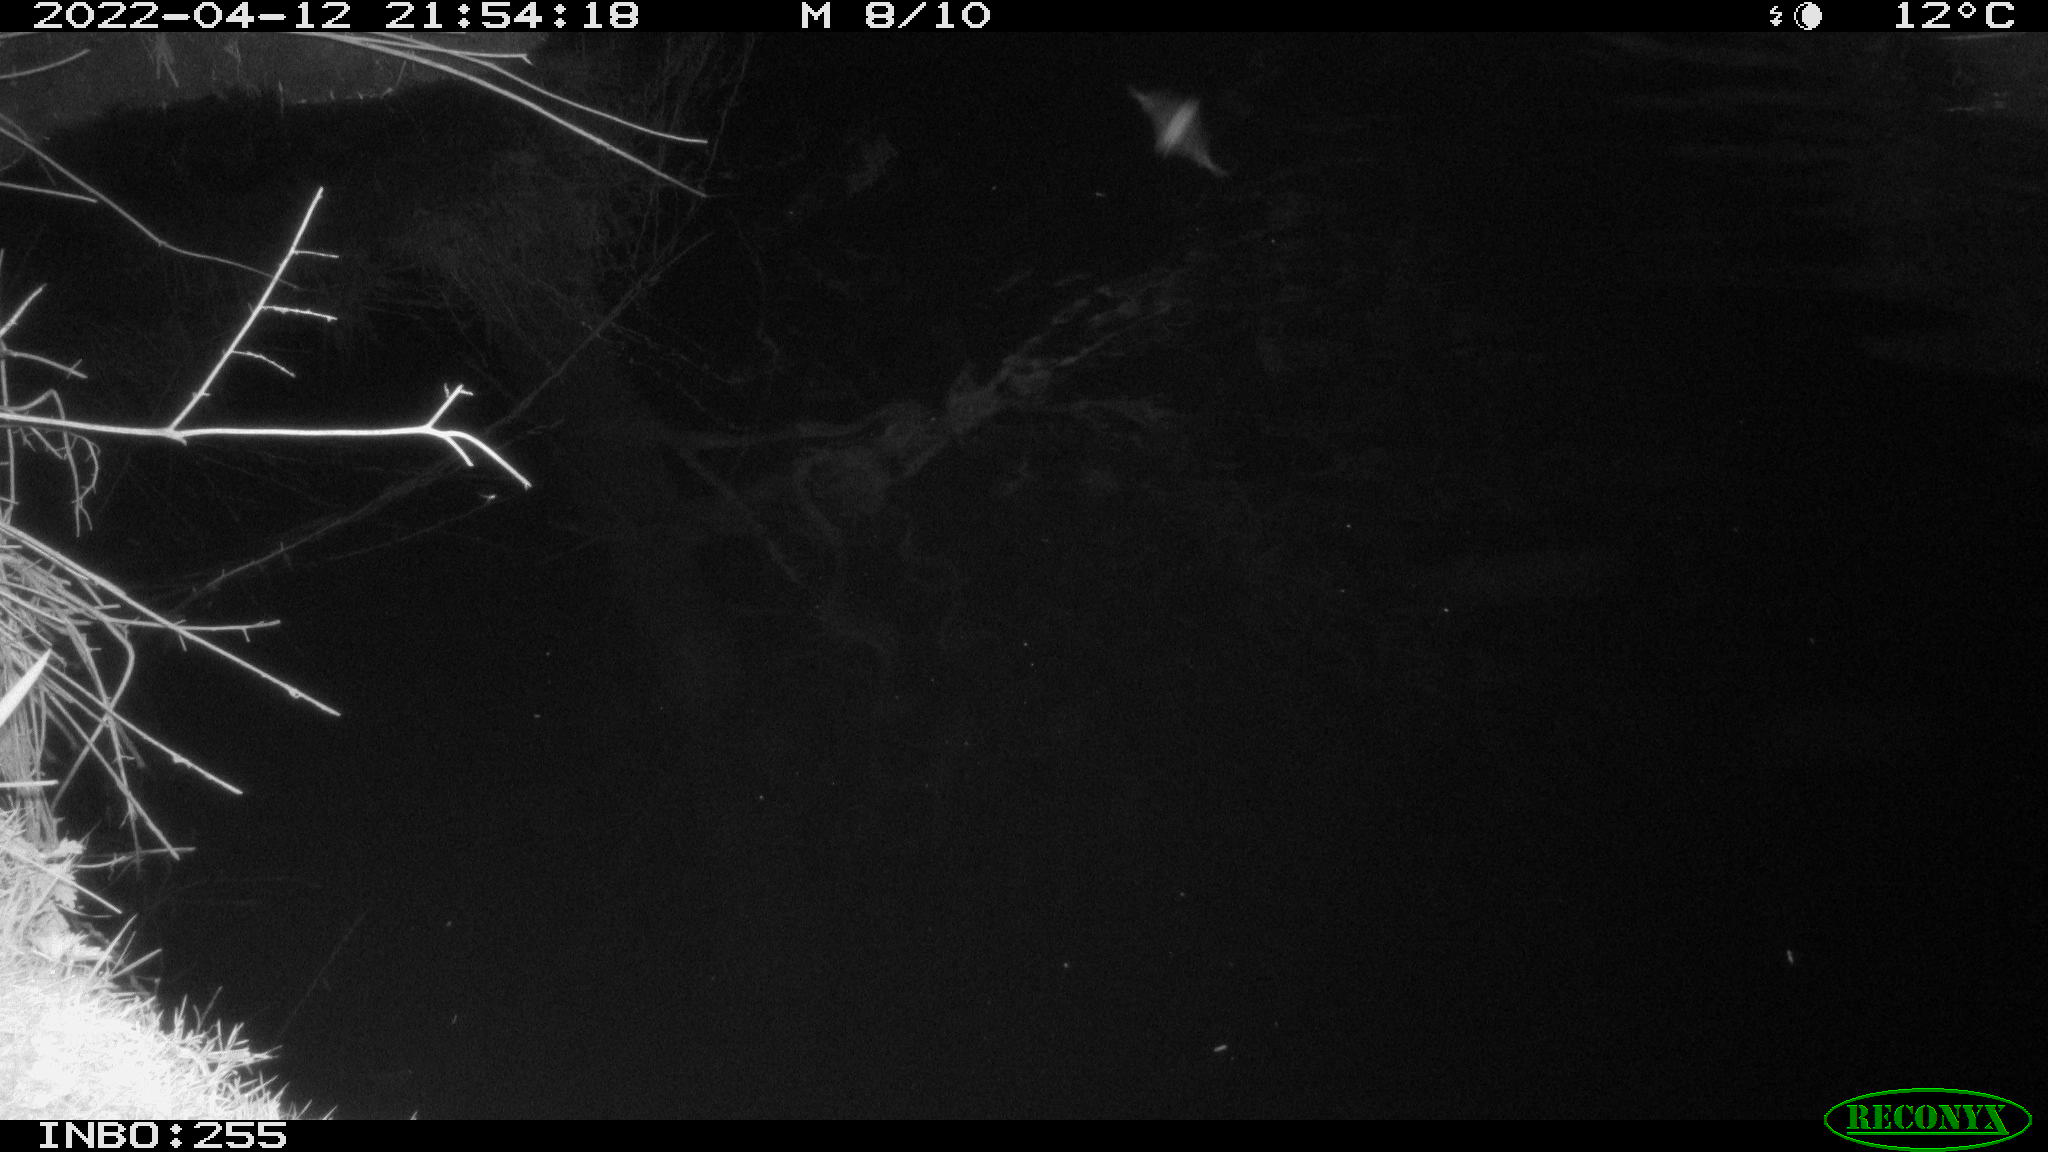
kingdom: Animalia
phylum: Chordata
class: Aves
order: Anseriformes
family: Anatidae
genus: Anas
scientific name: Anas platyrhynchos
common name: Mallard
